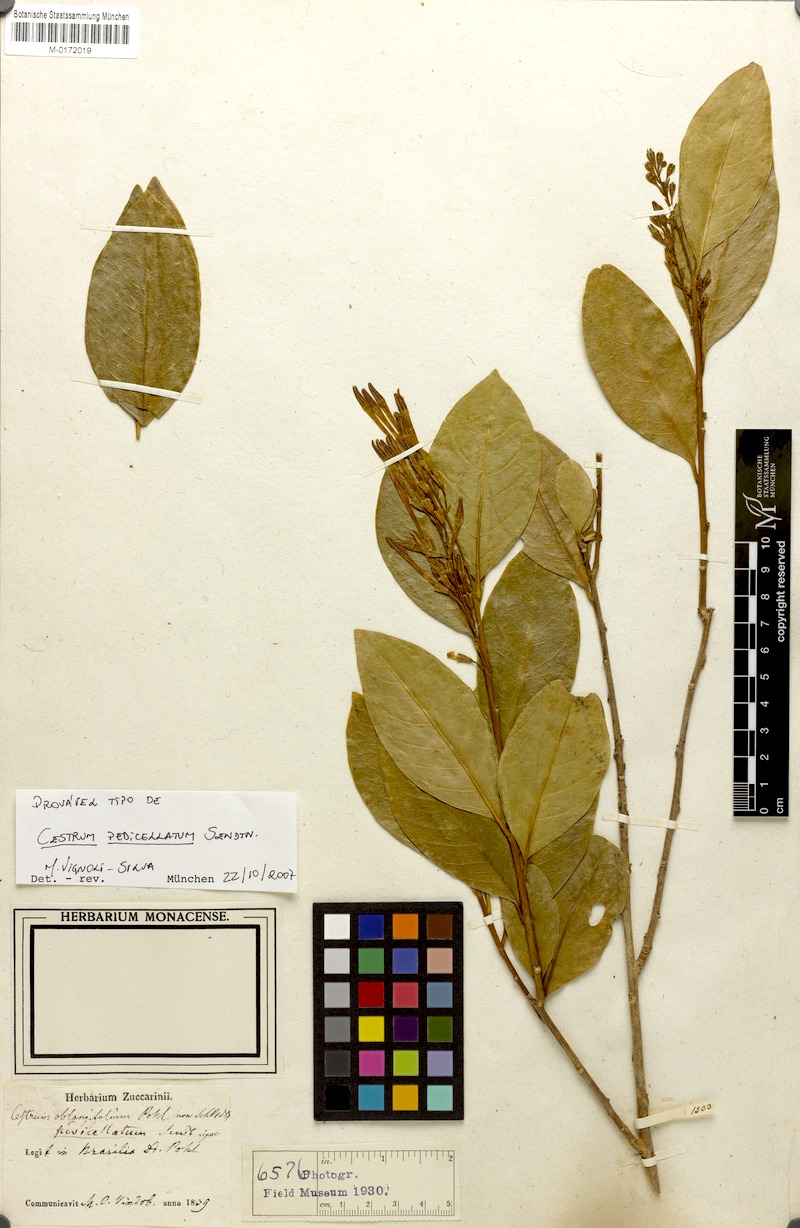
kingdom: Plantae
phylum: Tracheophyta
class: Magnoliopsida
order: Solanales
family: Solanaceae
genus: Cestrum
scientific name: Cestrum pedicellatum
